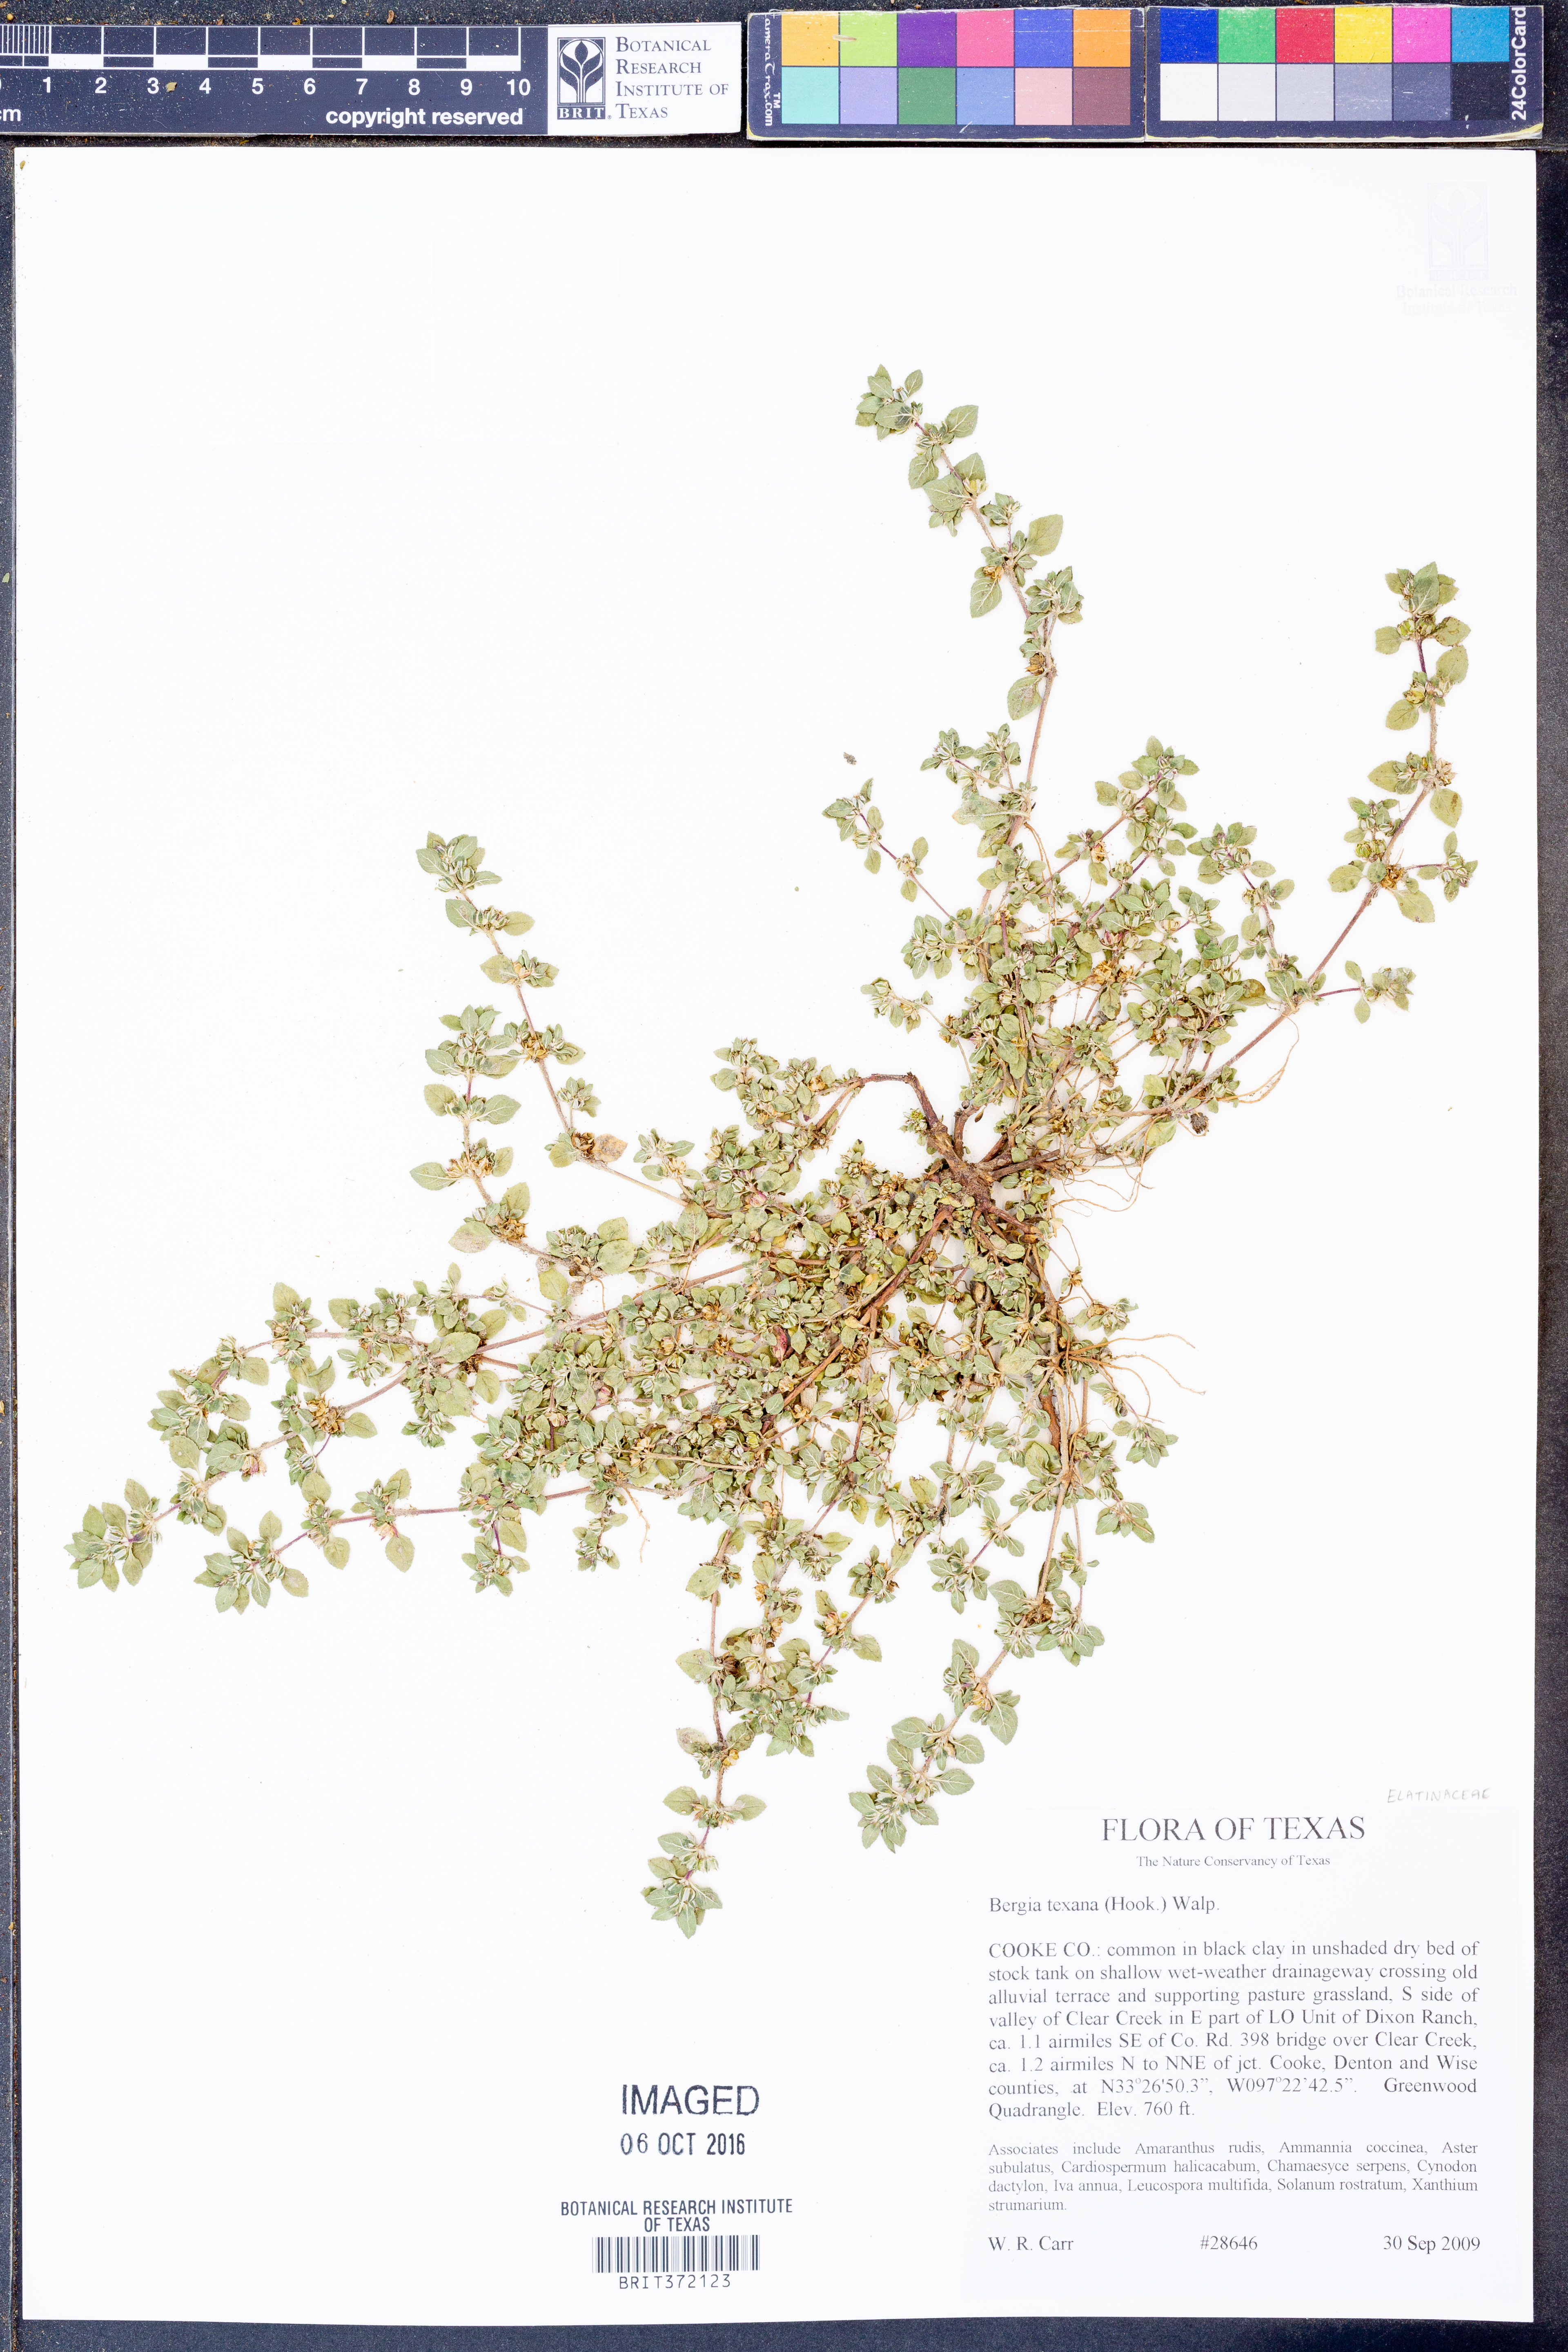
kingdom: Plantae
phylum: Tracheophyta
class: Magnoliopsida
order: Malpighiales
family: Elatinaceae
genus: Bergia
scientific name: Bergia texana
